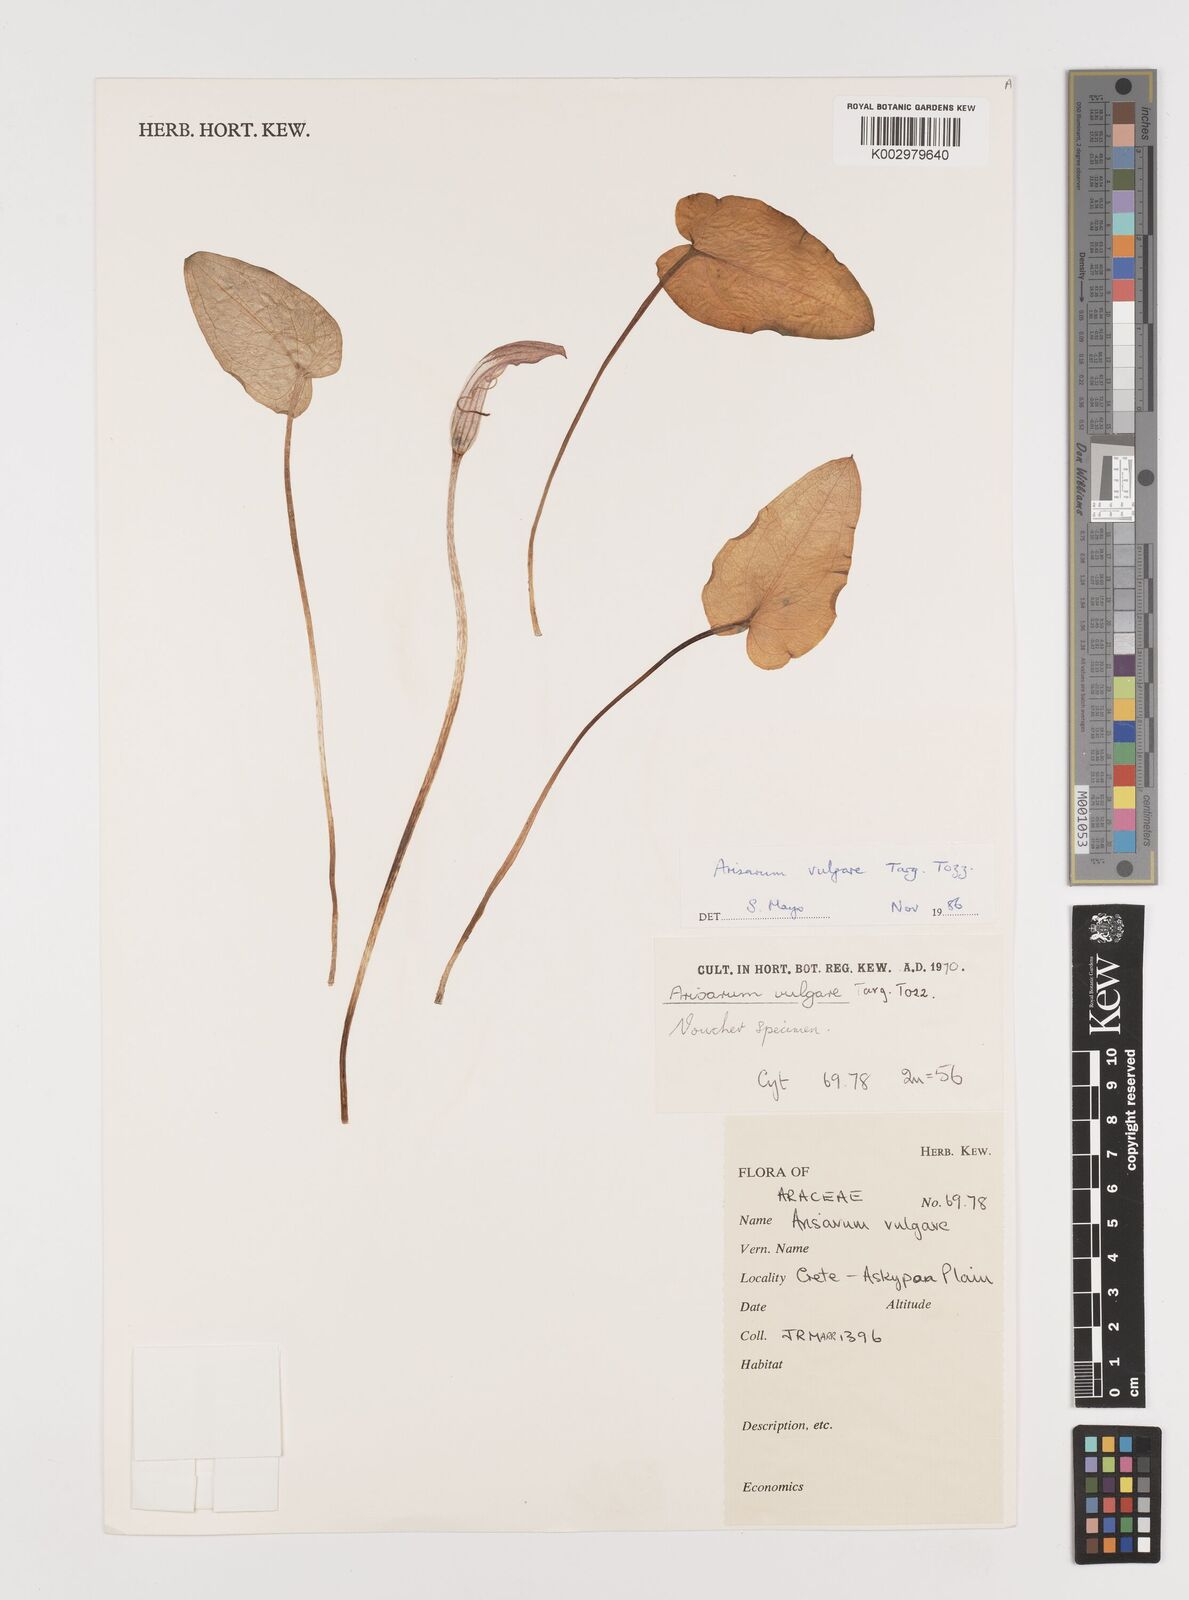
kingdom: Plantae
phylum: Tracheophyta
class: Liliopsida
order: Alismatales
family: Araceae
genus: Arisarum
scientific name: Arisarum vulgare
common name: Common arisarum
